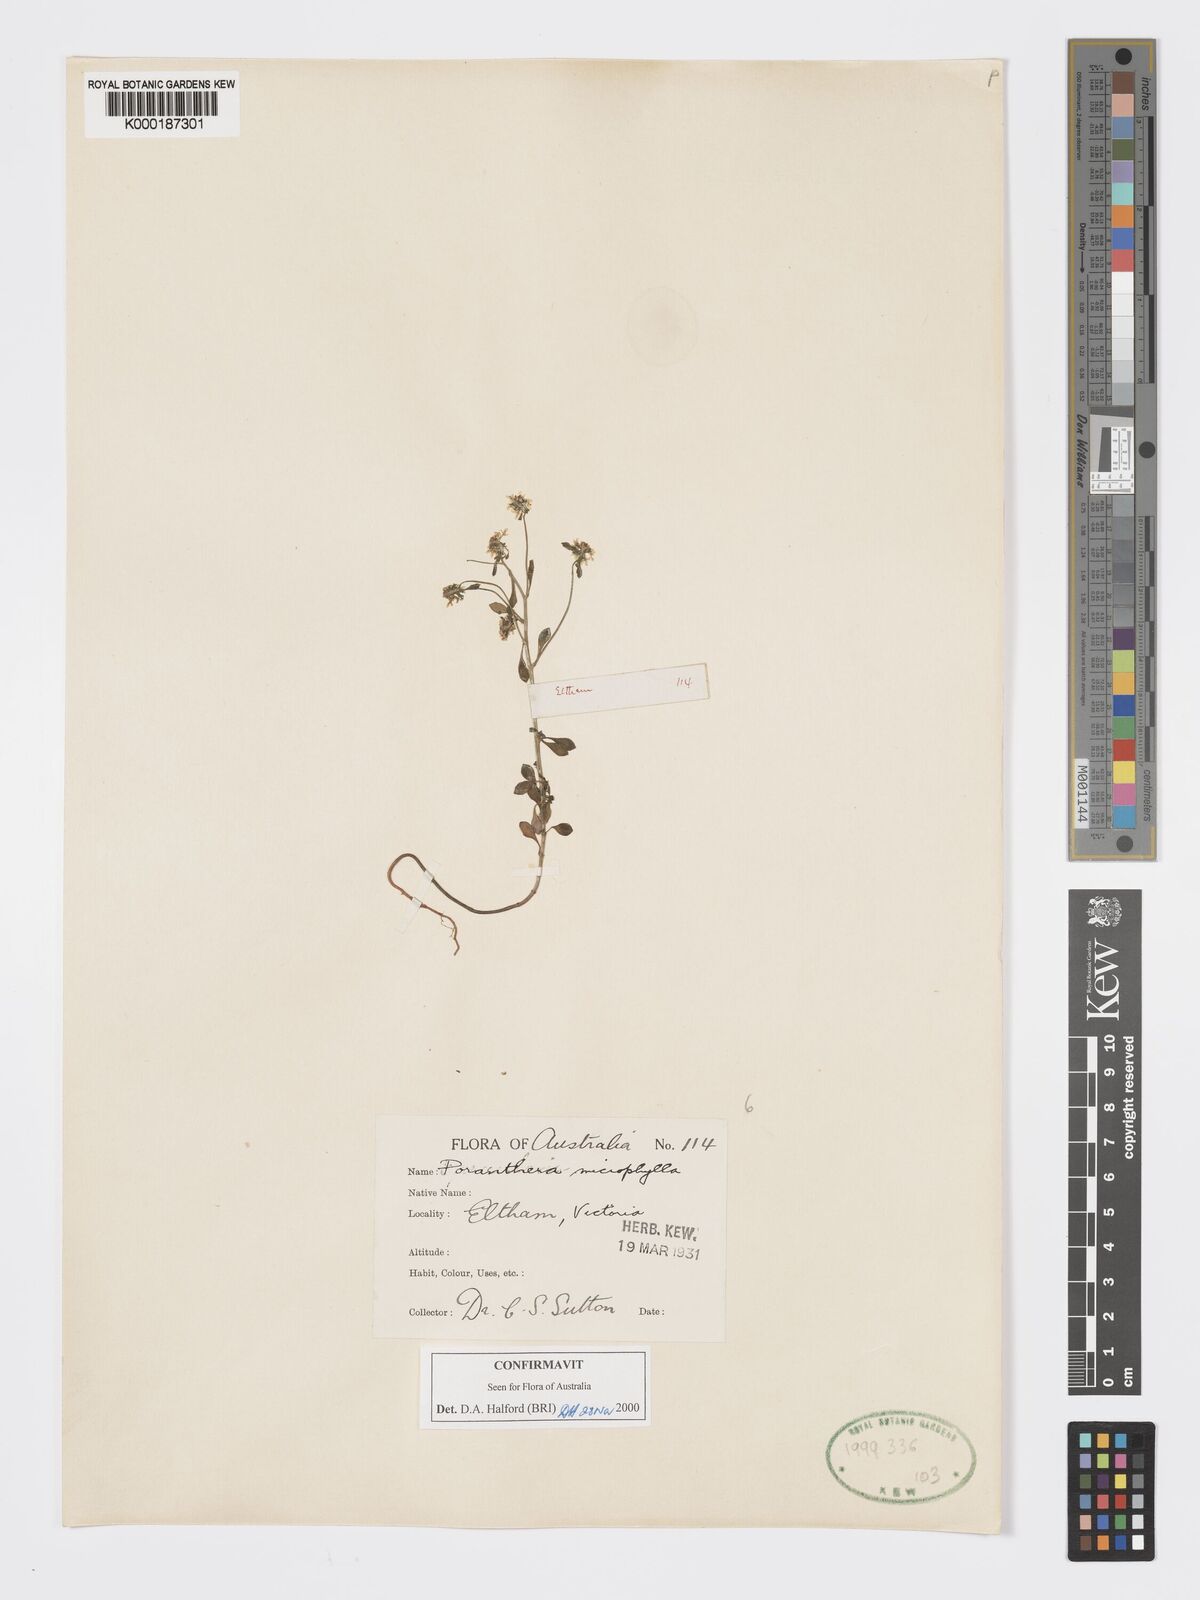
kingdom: Plantae
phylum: Tracheophyta
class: Magnoliopsida
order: Malpighiales
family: Phyllanthaceae
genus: Poranthera
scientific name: Poranthera microphylla
